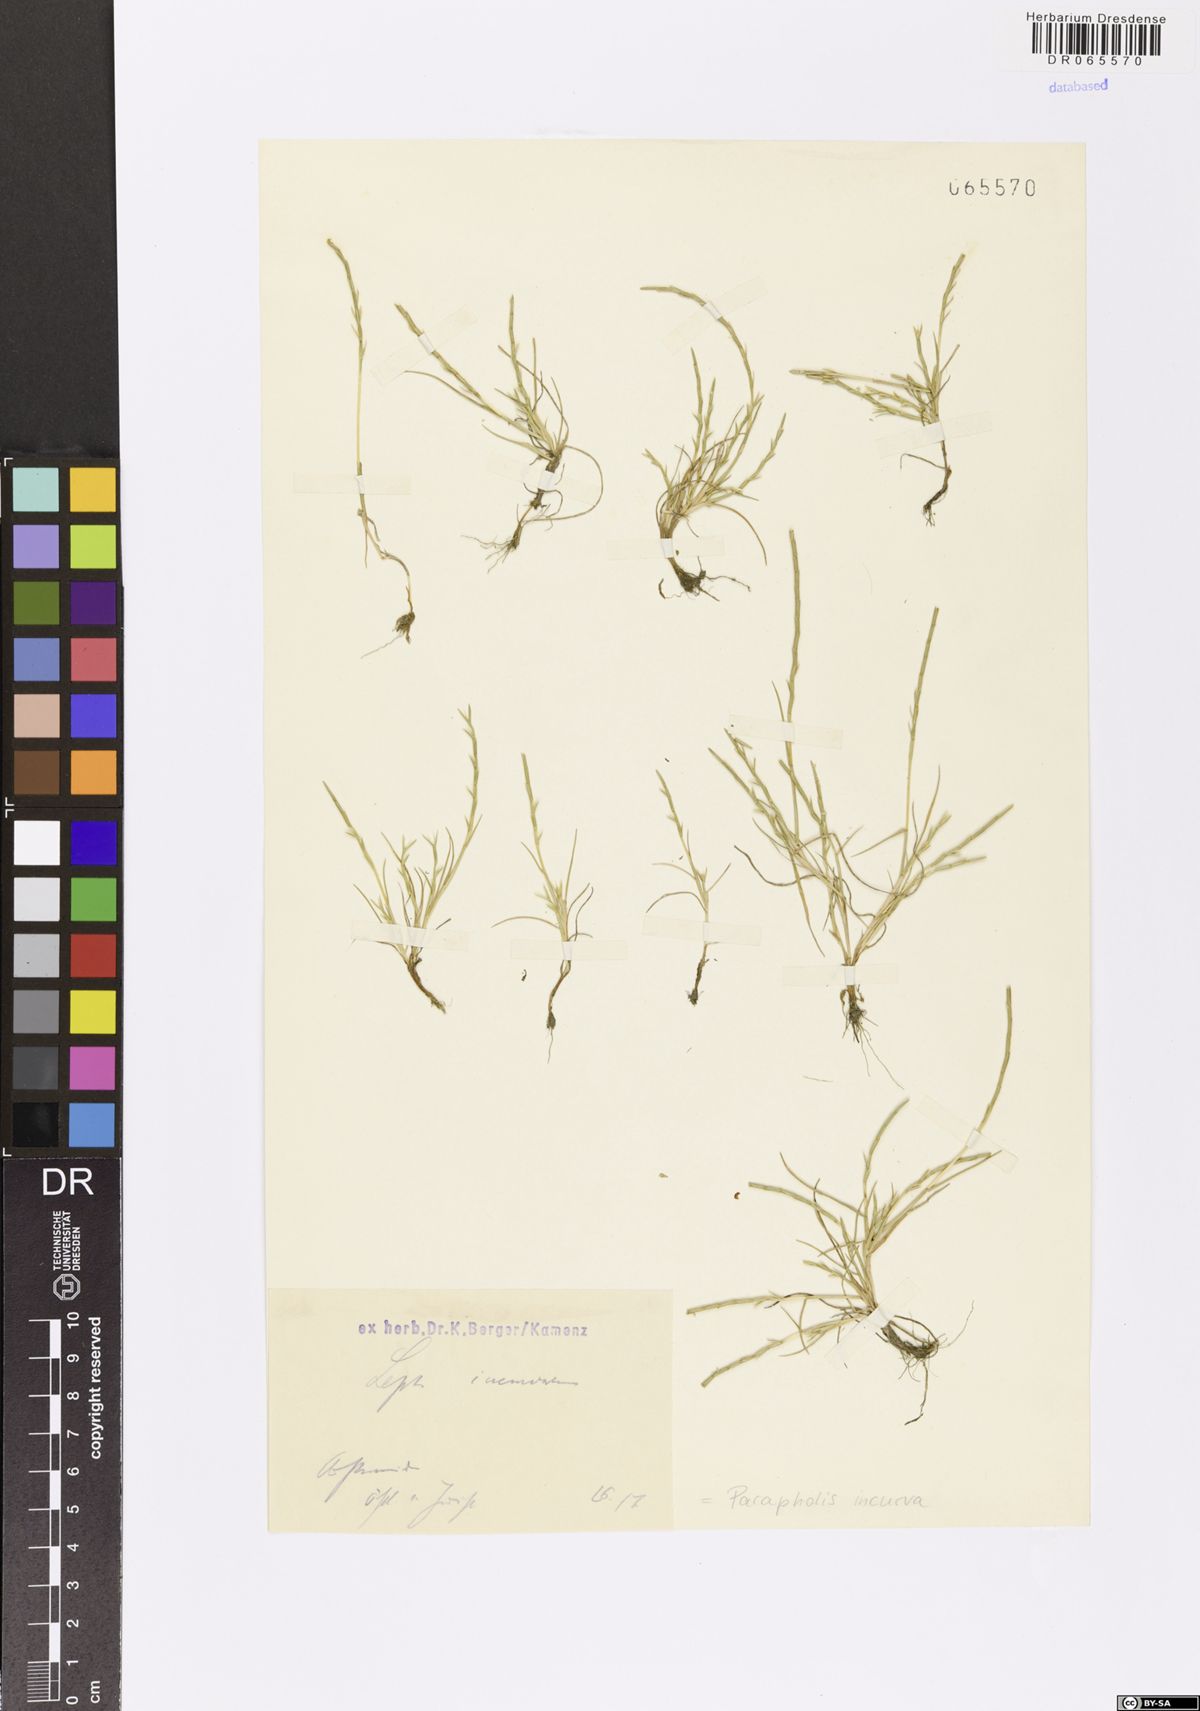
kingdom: Plantae
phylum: Tracheophyta
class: Liliopsida
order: Poales
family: Poaceae
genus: Parapholis
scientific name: Parapholis incurva
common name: Curved sicklegrass
